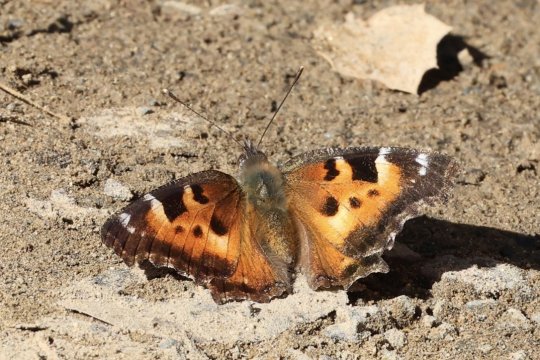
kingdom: Animalia
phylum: Arthropoda
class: Insecta
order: Lepidoptera
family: Nymphalidae
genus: Nymphalis
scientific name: Nymphalis californica
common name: California Tortoiseshell
